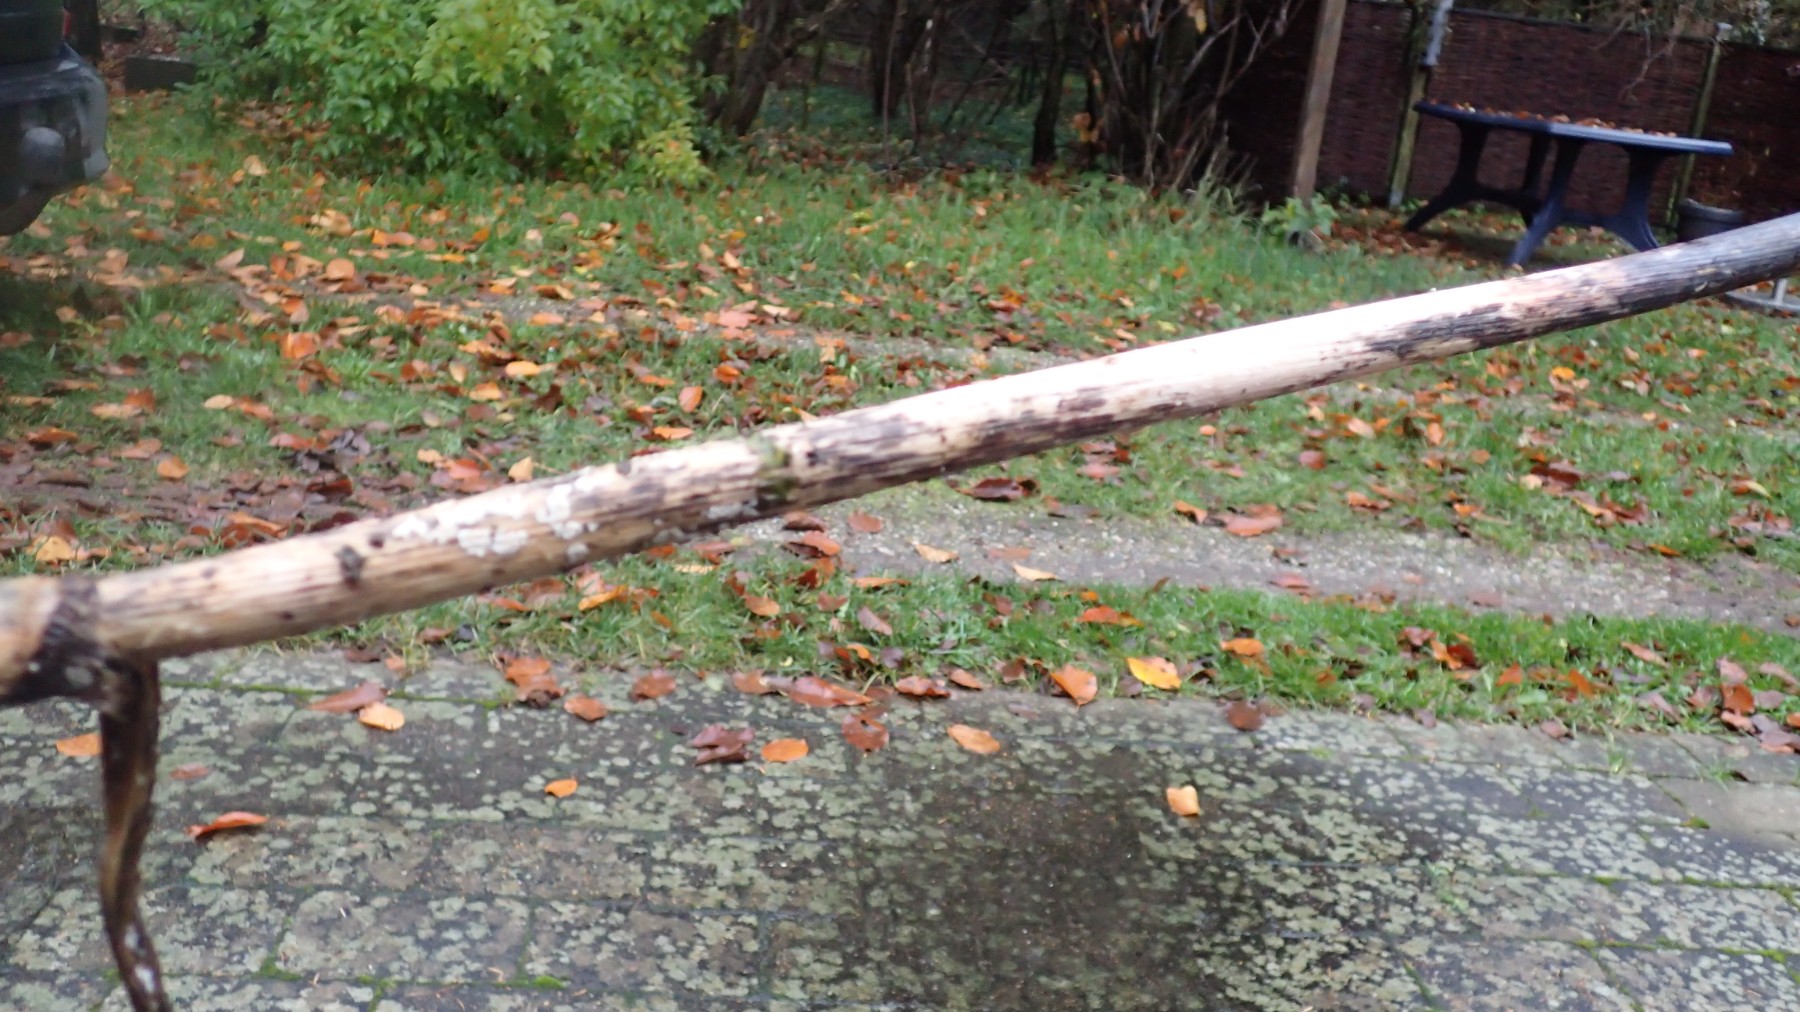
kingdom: Fungi
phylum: Basidiomycota
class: Agaricomycetes
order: Agaricales
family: Physalacriaceae
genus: Cylindrobasidium
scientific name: Cylindrobasidium evolvens
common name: sprækkehinde
